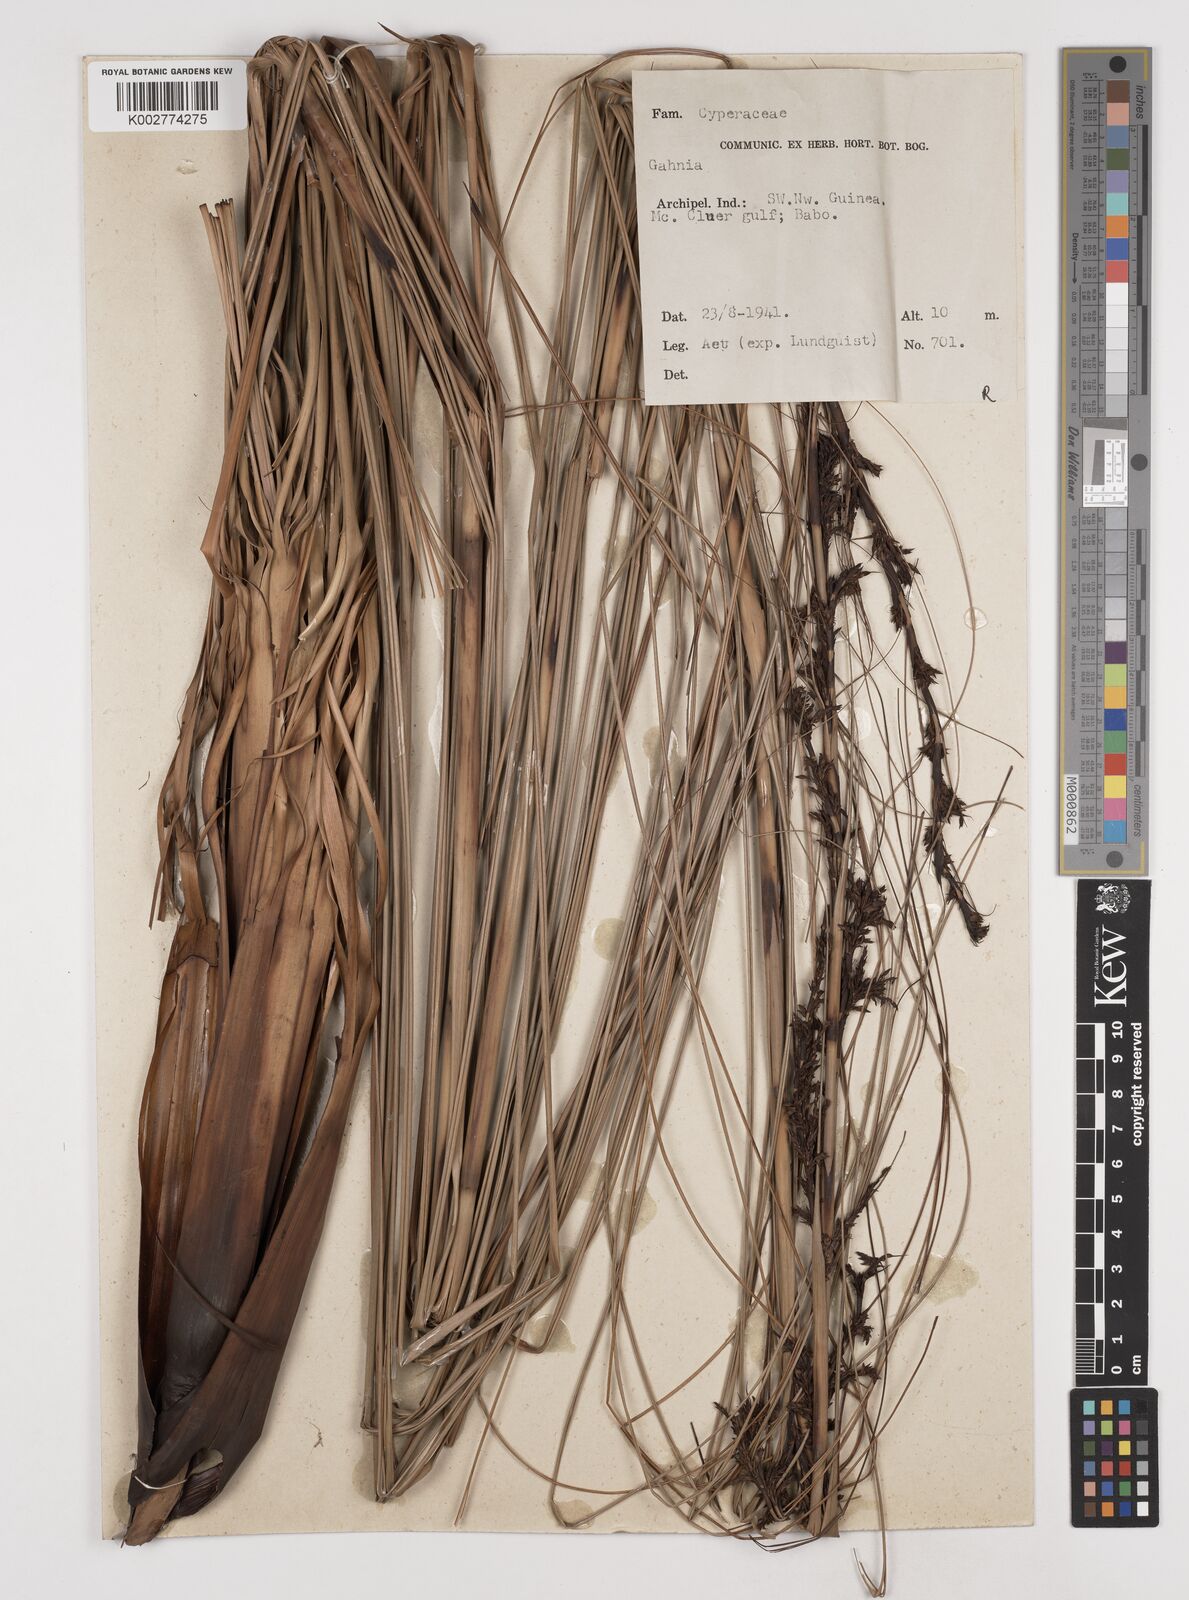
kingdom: Plantae
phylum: Tracheophyta
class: Liliopsida
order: Poales
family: Cyperaceae
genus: Gahnia
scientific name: Gahnia
